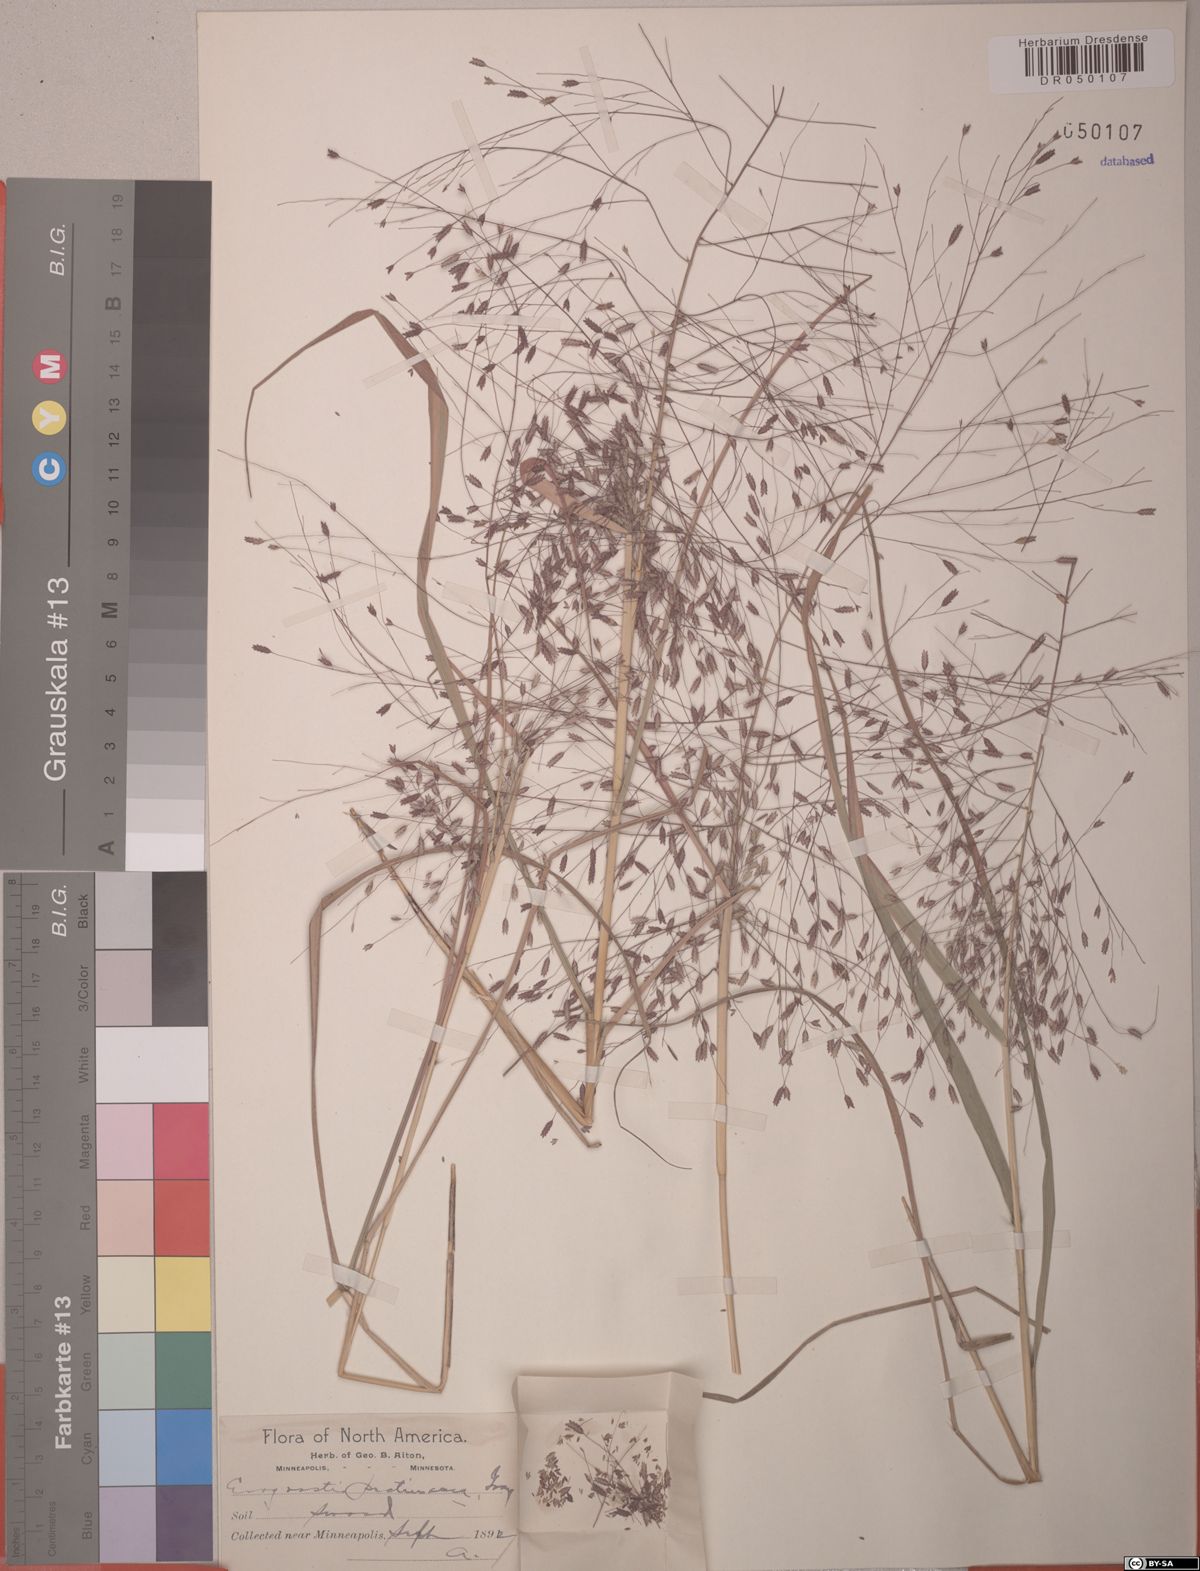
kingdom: Plantae
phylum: Tracheophyta
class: Liliopsida
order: Poales
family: Poaceae
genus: Eragrostis
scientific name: Eragrostis pectinacea
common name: Tufted lovegrass
